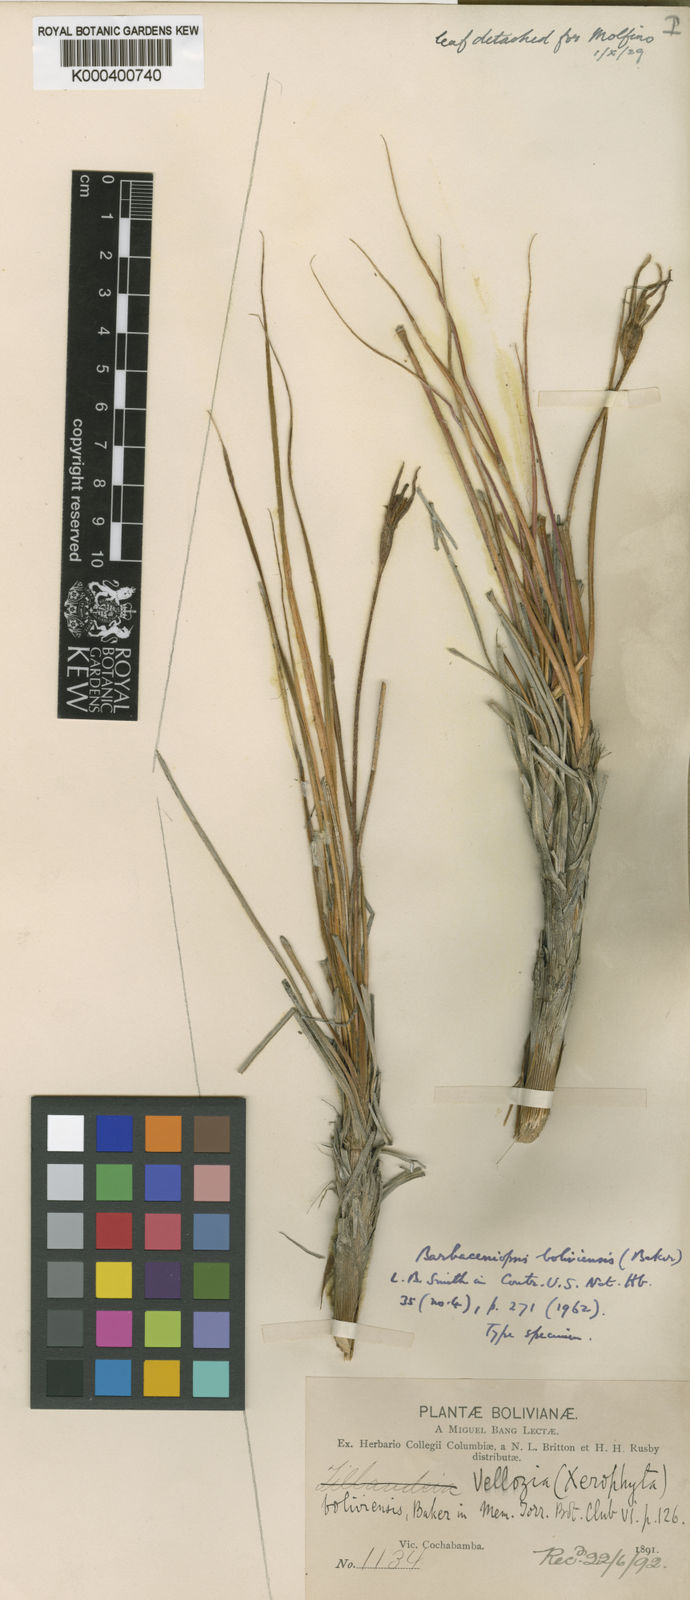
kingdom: Plantae
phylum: Tracheophyta
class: Liliopsida
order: Pandanales
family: Velloziaceae
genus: Barbaceniopsis
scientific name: Barbaceniopsis boliviensis
